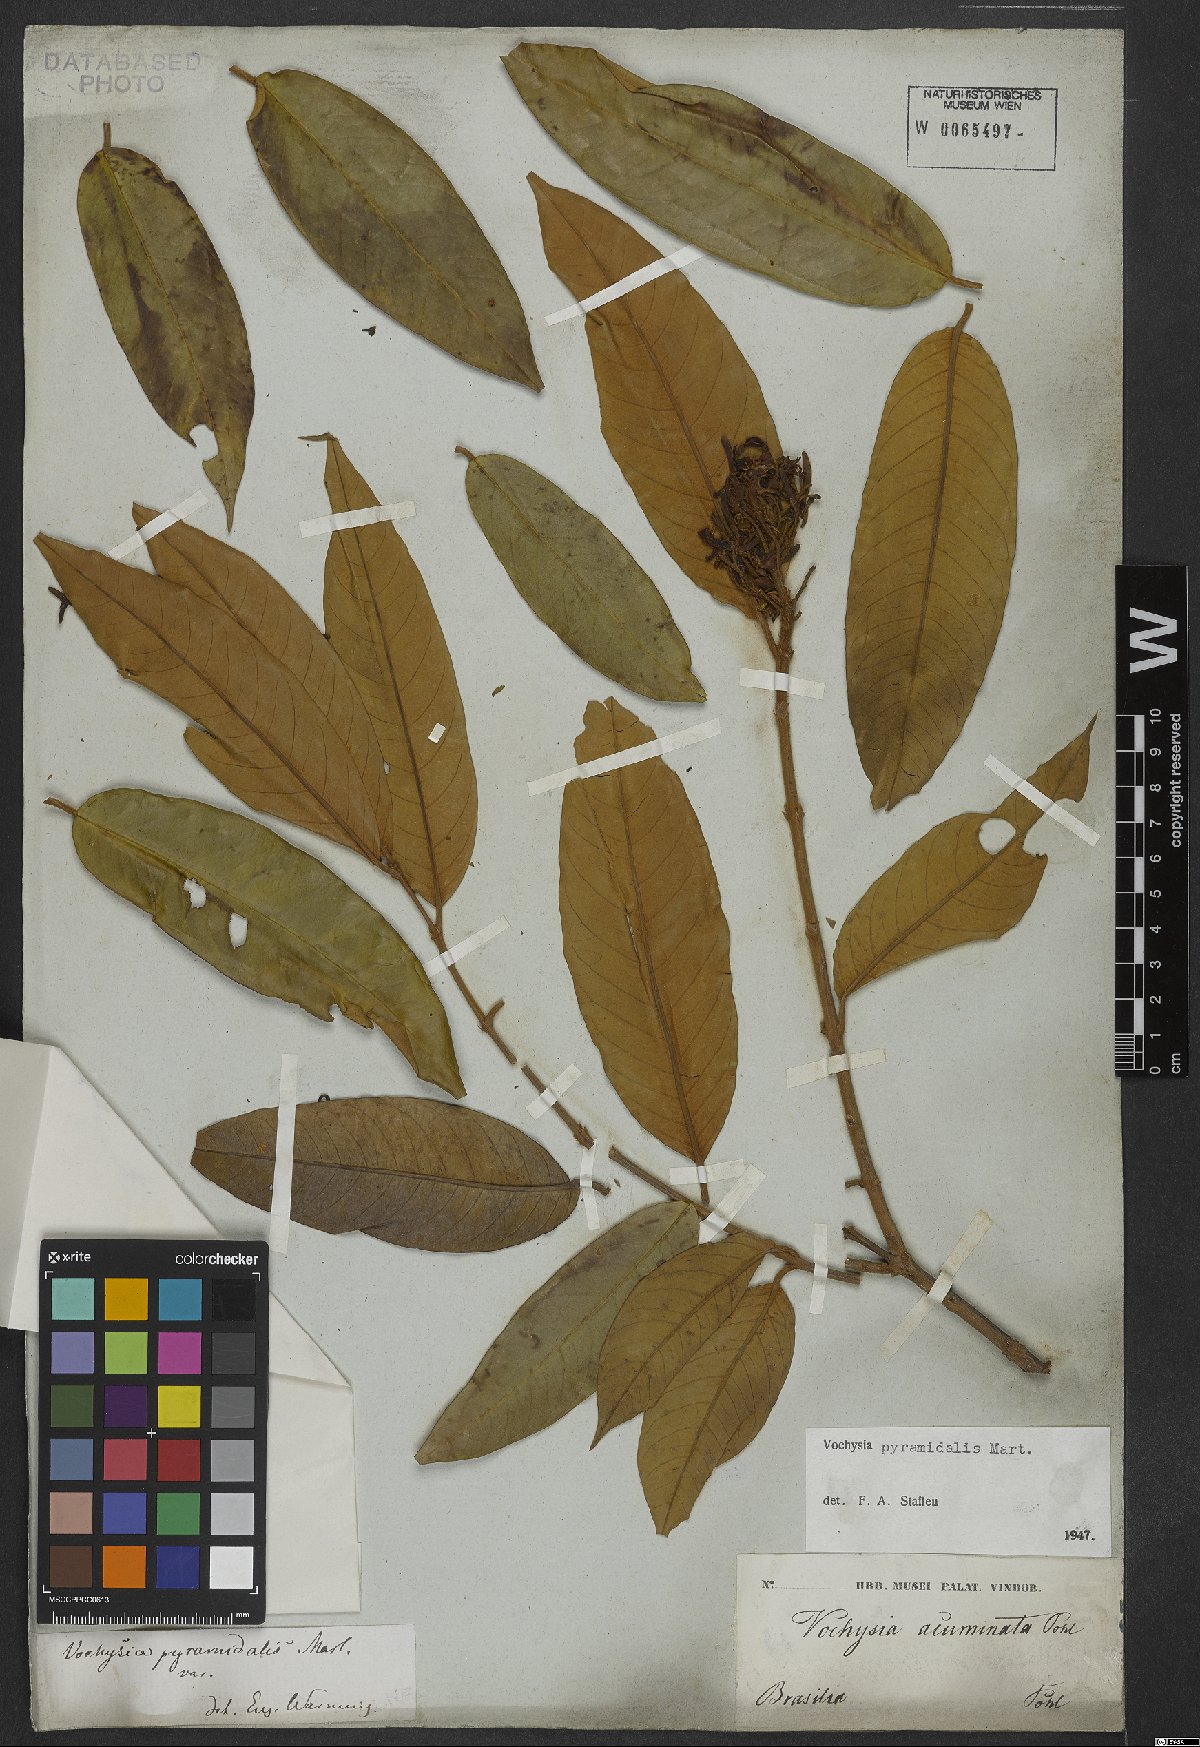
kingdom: Plantae
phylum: Tracheophyta
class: Magnoliopsida
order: Myrtales
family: Vochysiaceae
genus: Vochysia
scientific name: Vochysia pyramidalis
